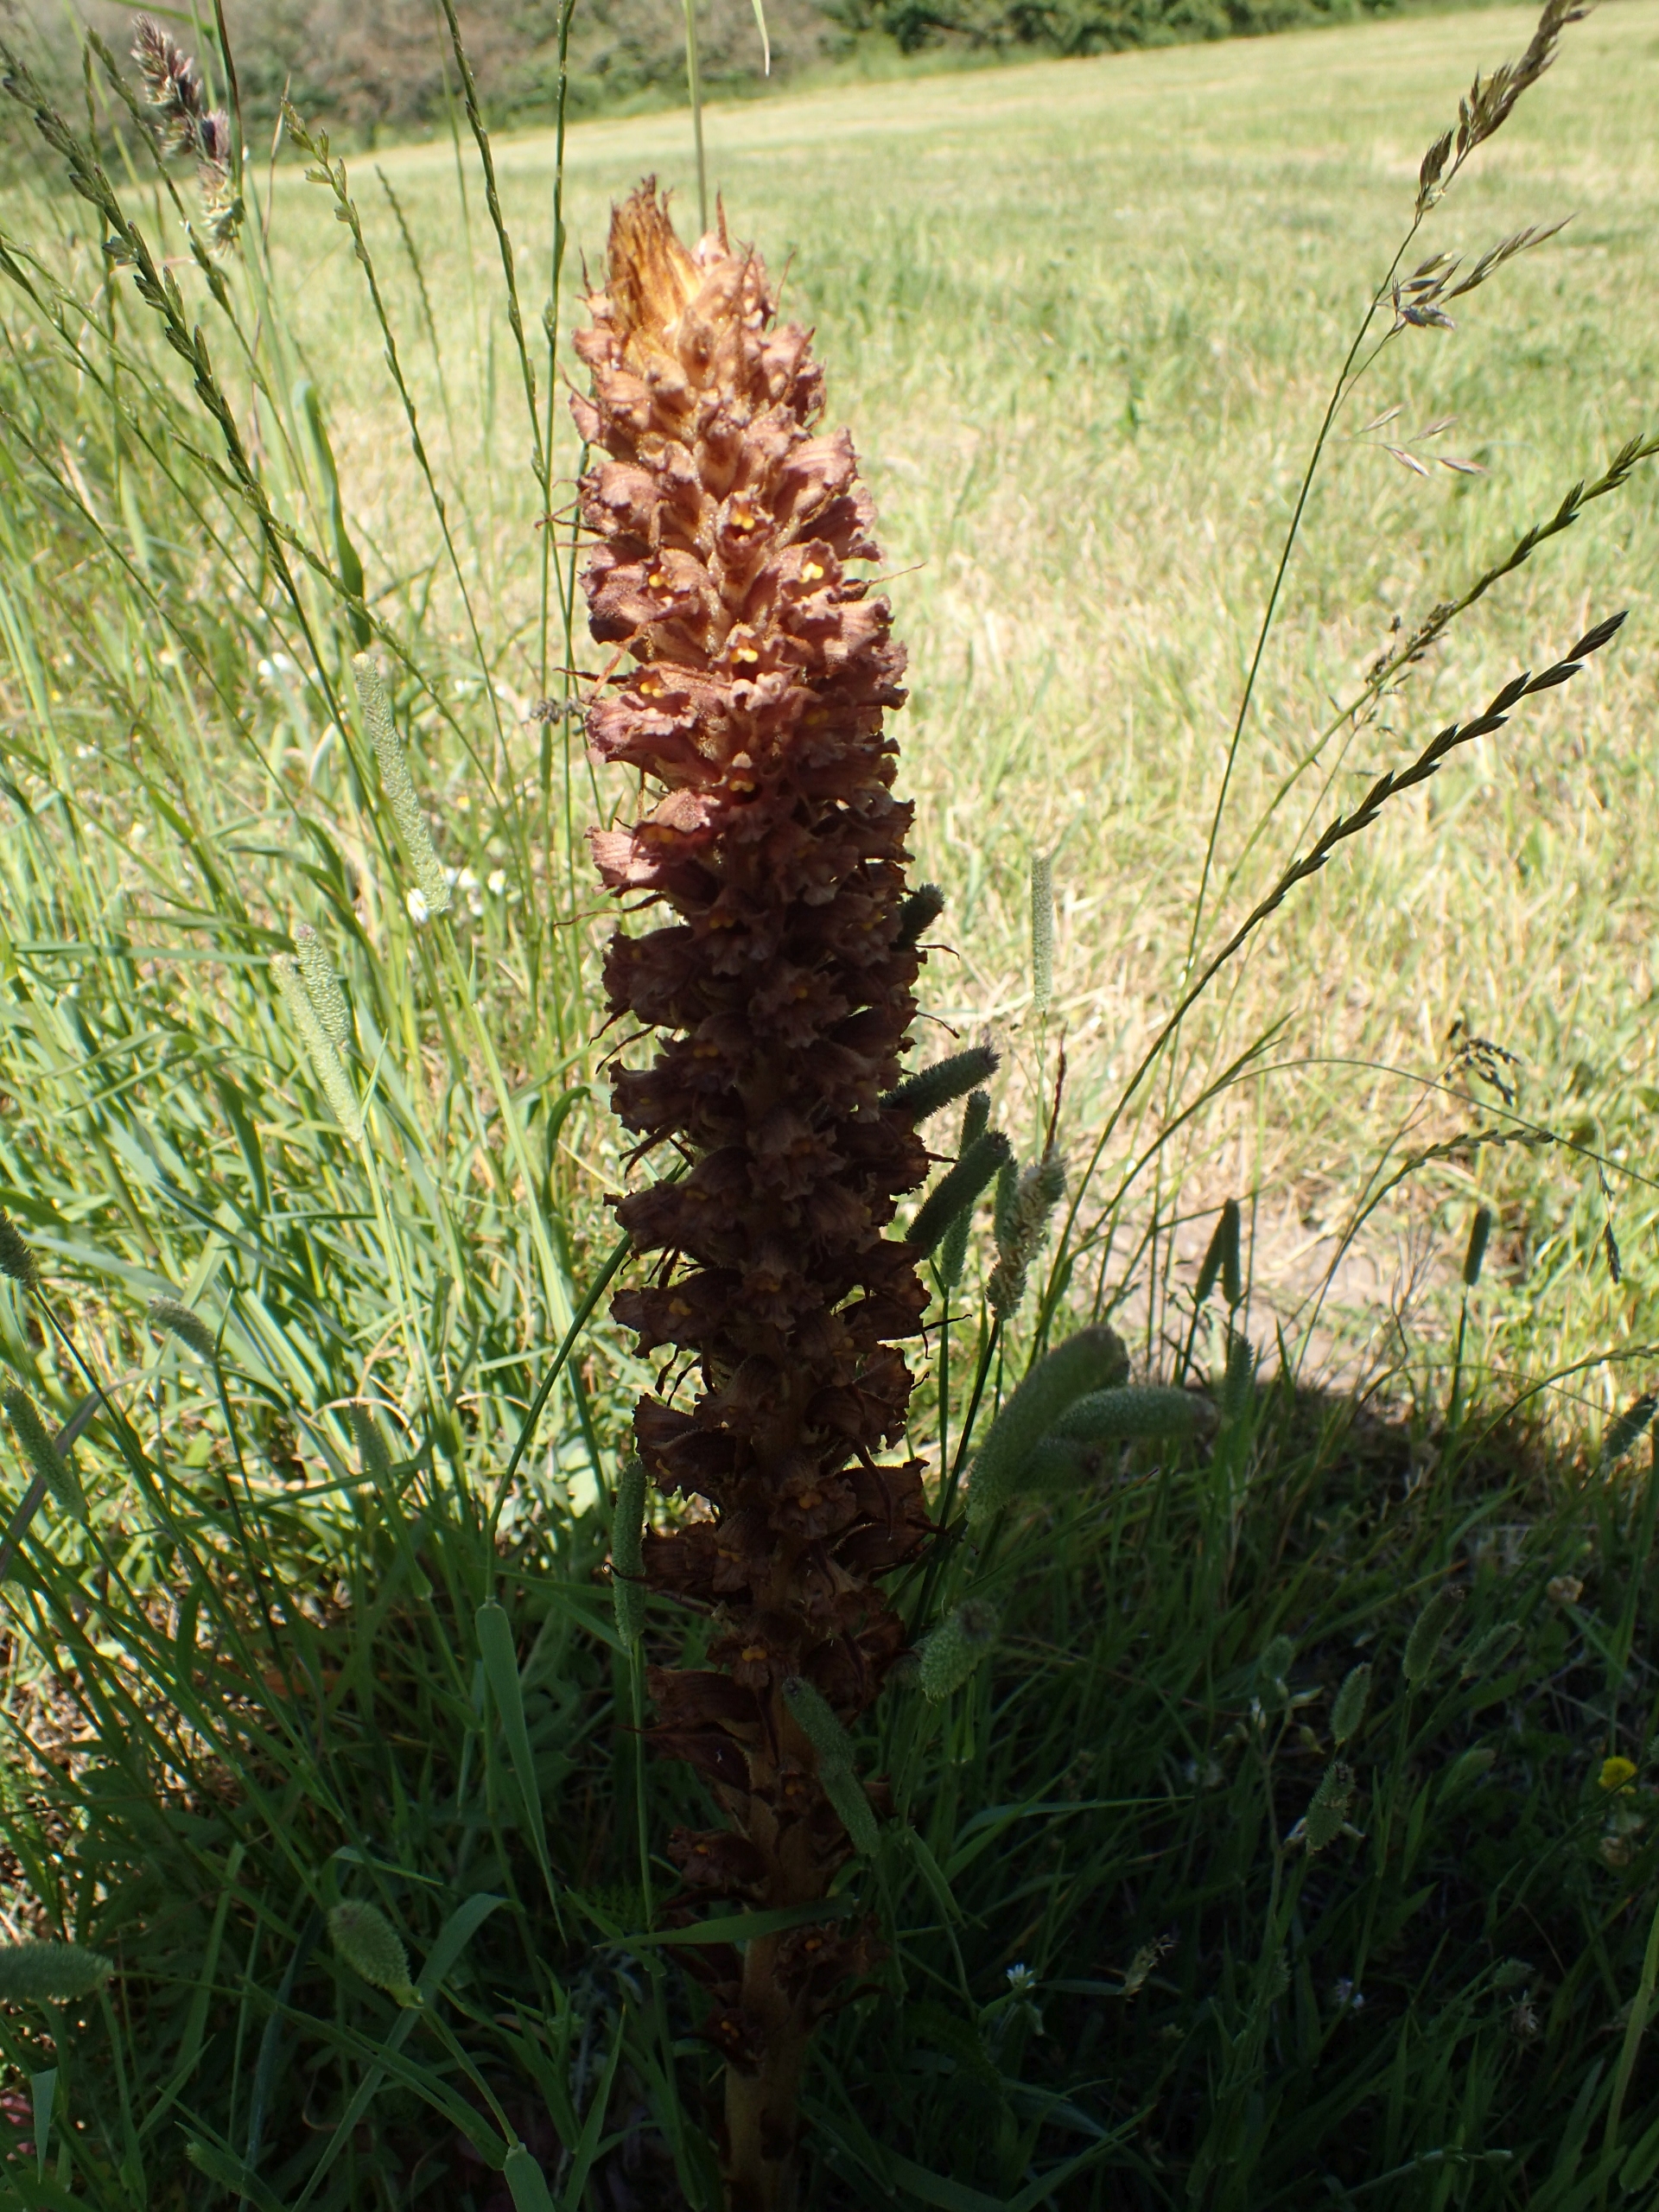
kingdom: Plantae
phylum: Tracheophyta
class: Magnoliopsida
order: Lamiales
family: Orobanchaceae
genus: Orobanche
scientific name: Orobanche elatior
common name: Stor gyvelkvæler
